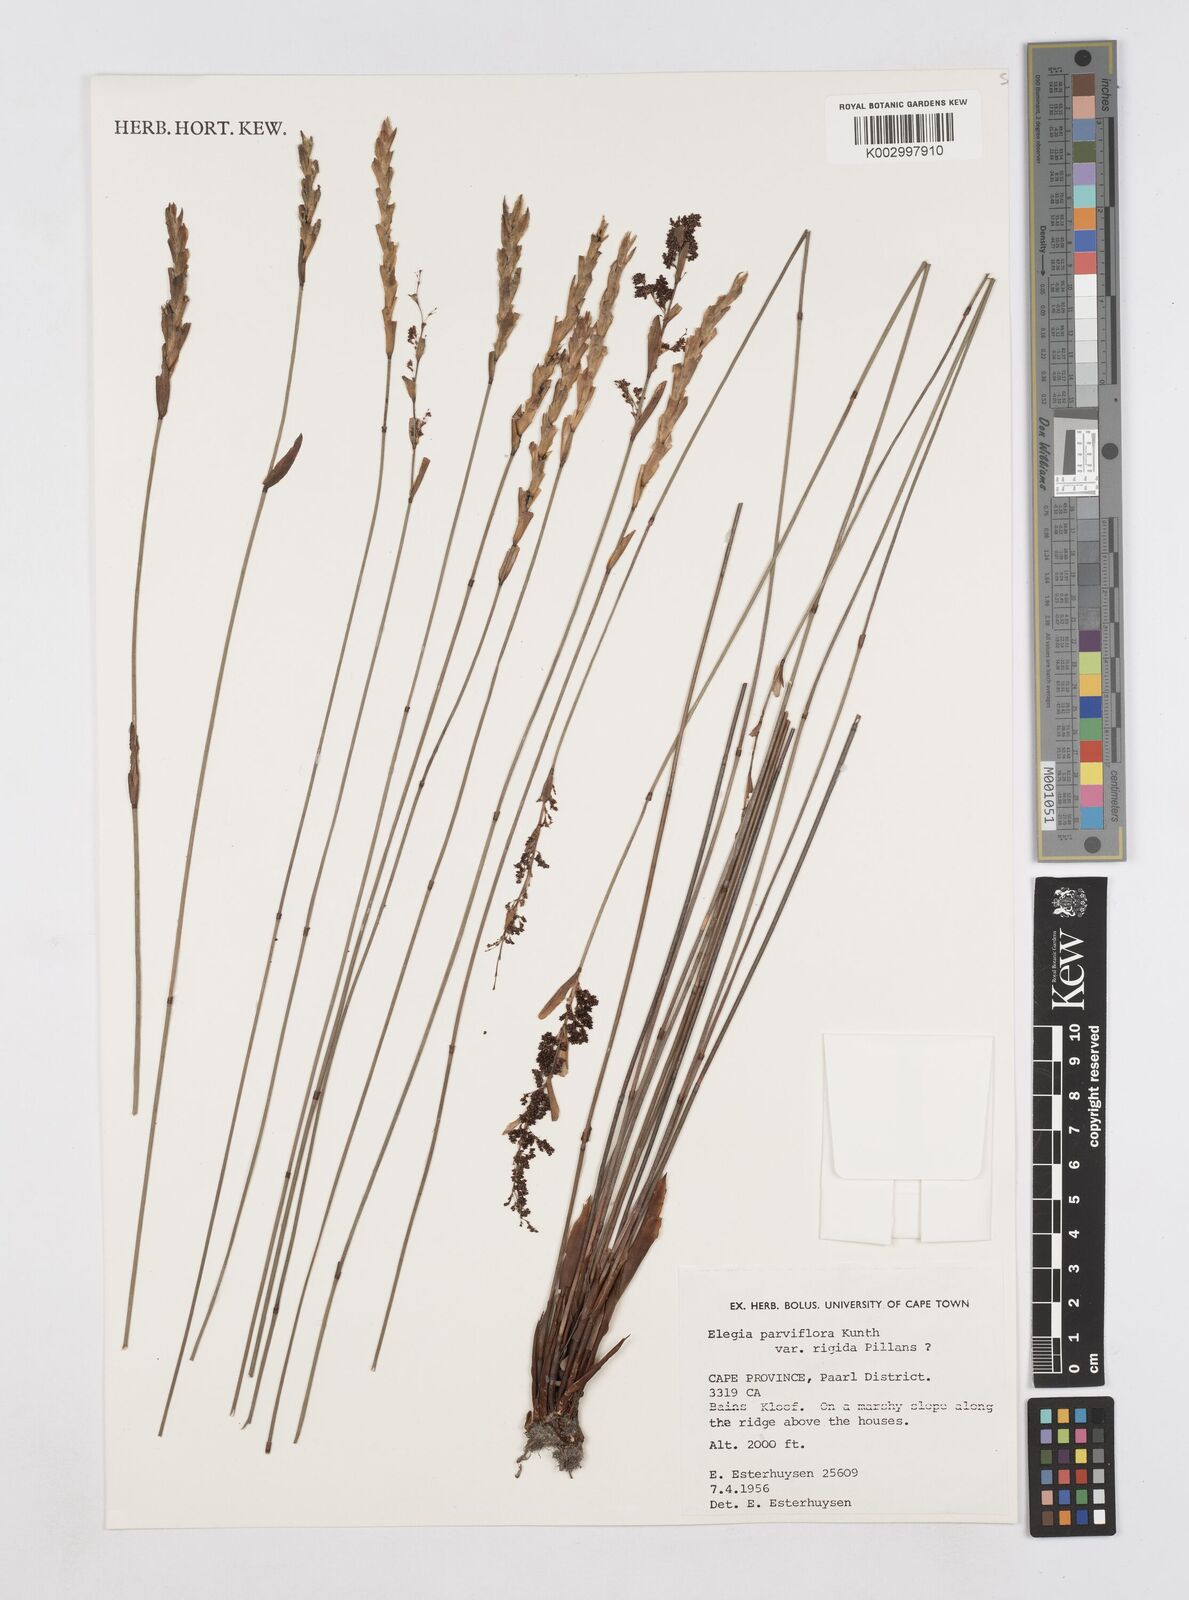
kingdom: Plantae
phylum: Tracheophyta
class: Liliopsida
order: Poales
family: Restionaceae
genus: Elegia
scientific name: Elegia rigida
